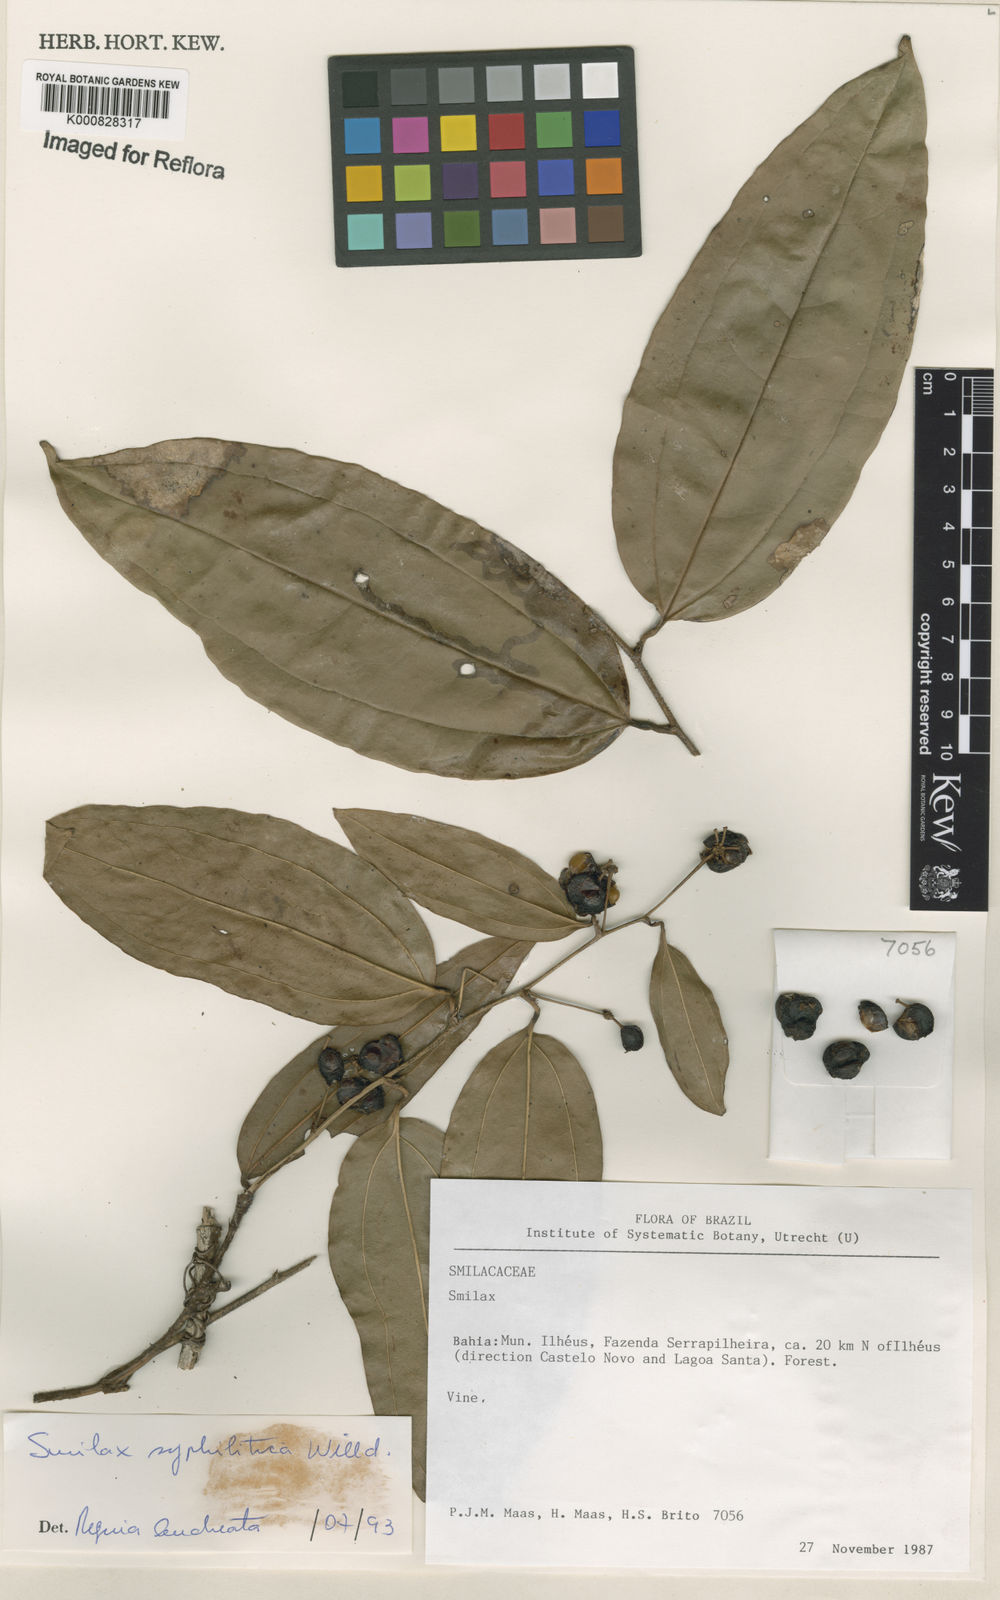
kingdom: Plantae
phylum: Tracheophyta
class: Liliopsida
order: Liliales
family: Smilacaceae
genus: Smilax
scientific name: Smilax siphilitica
